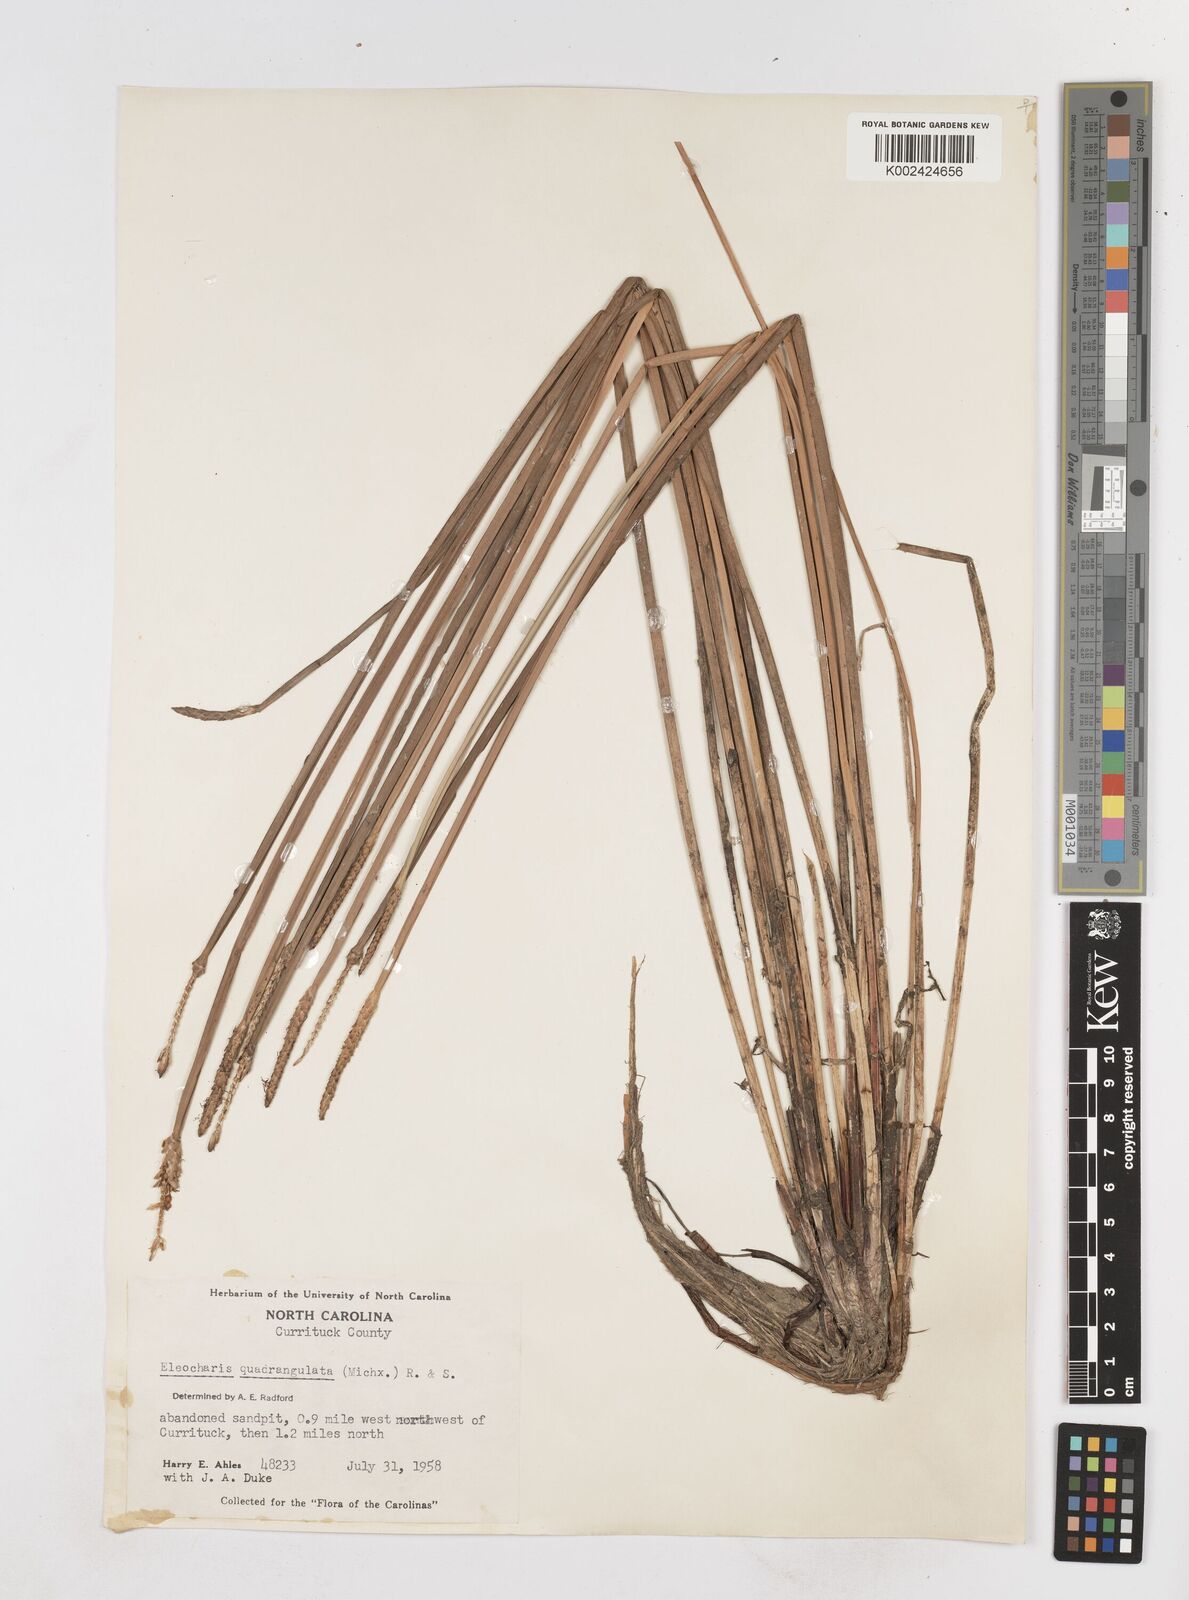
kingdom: Plantae
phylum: Tracheophyta
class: Liliopsida
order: Poales
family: Cyperaceae
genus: Eleocharis
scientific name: Eleocharis quadrangulata
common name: Square-stem spike-rush
